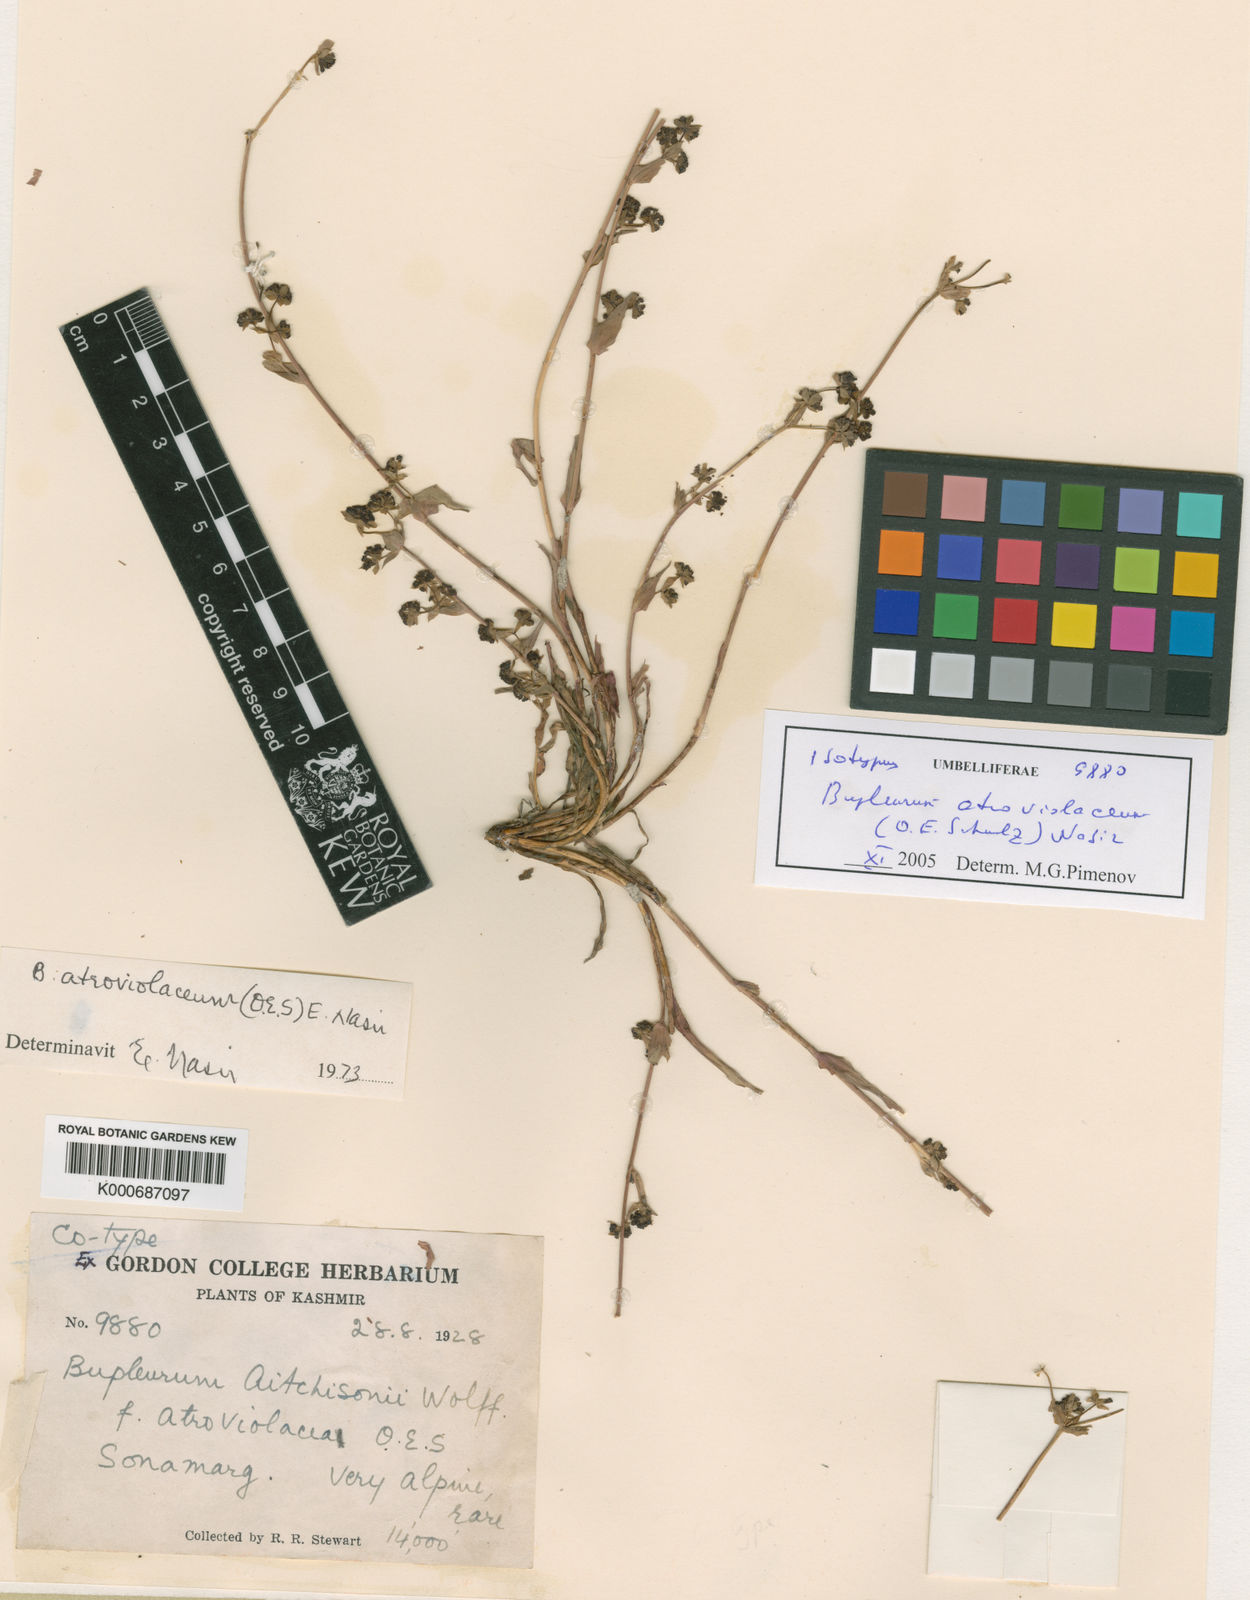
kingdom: Plantae
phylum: Tracheophyta
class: Magnoliopsida
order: Apiales
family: Apiaceae
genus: Bupleurum
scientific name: Bupleurum aitchisonii
